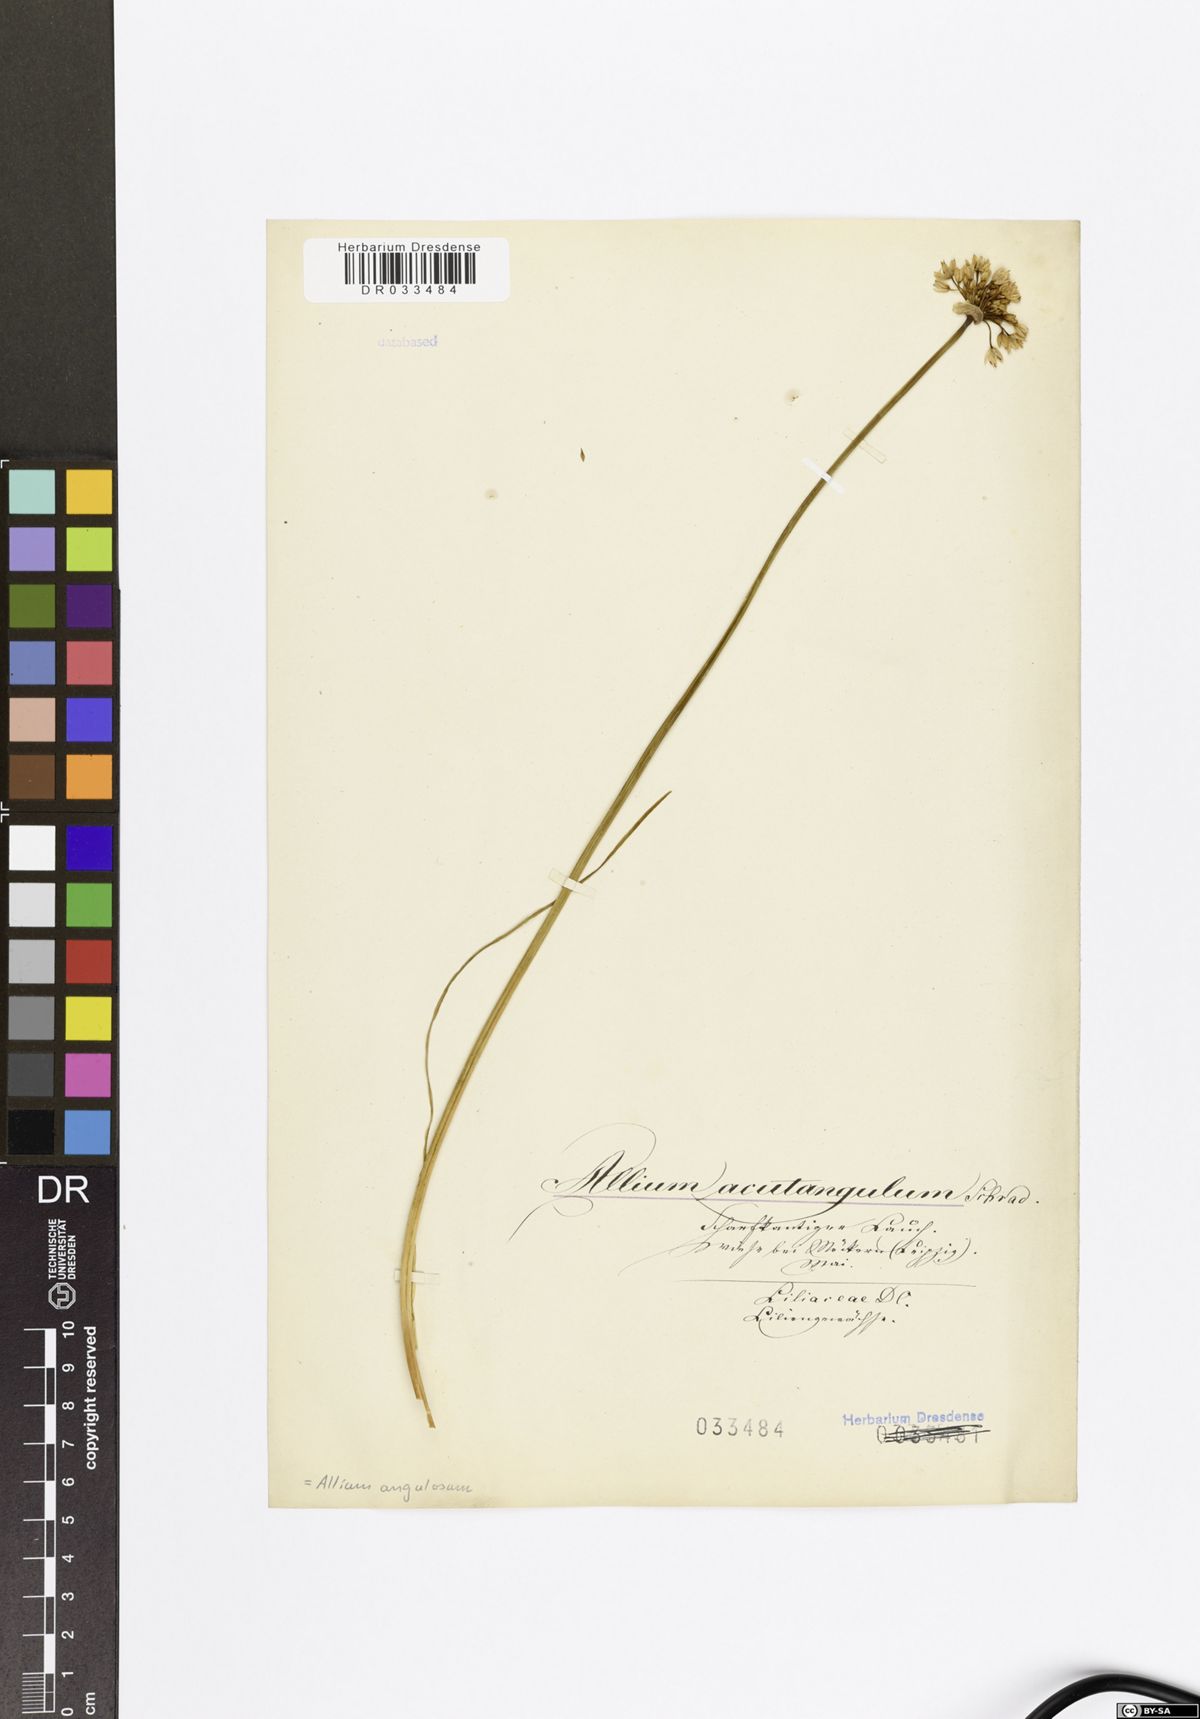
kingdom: Plantae
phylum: Tracheophyta
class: Liliopsida
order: Asparagales
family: Amaryllidaceae
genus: Allium
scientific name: Allium angulosum
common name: Mouse garlic
